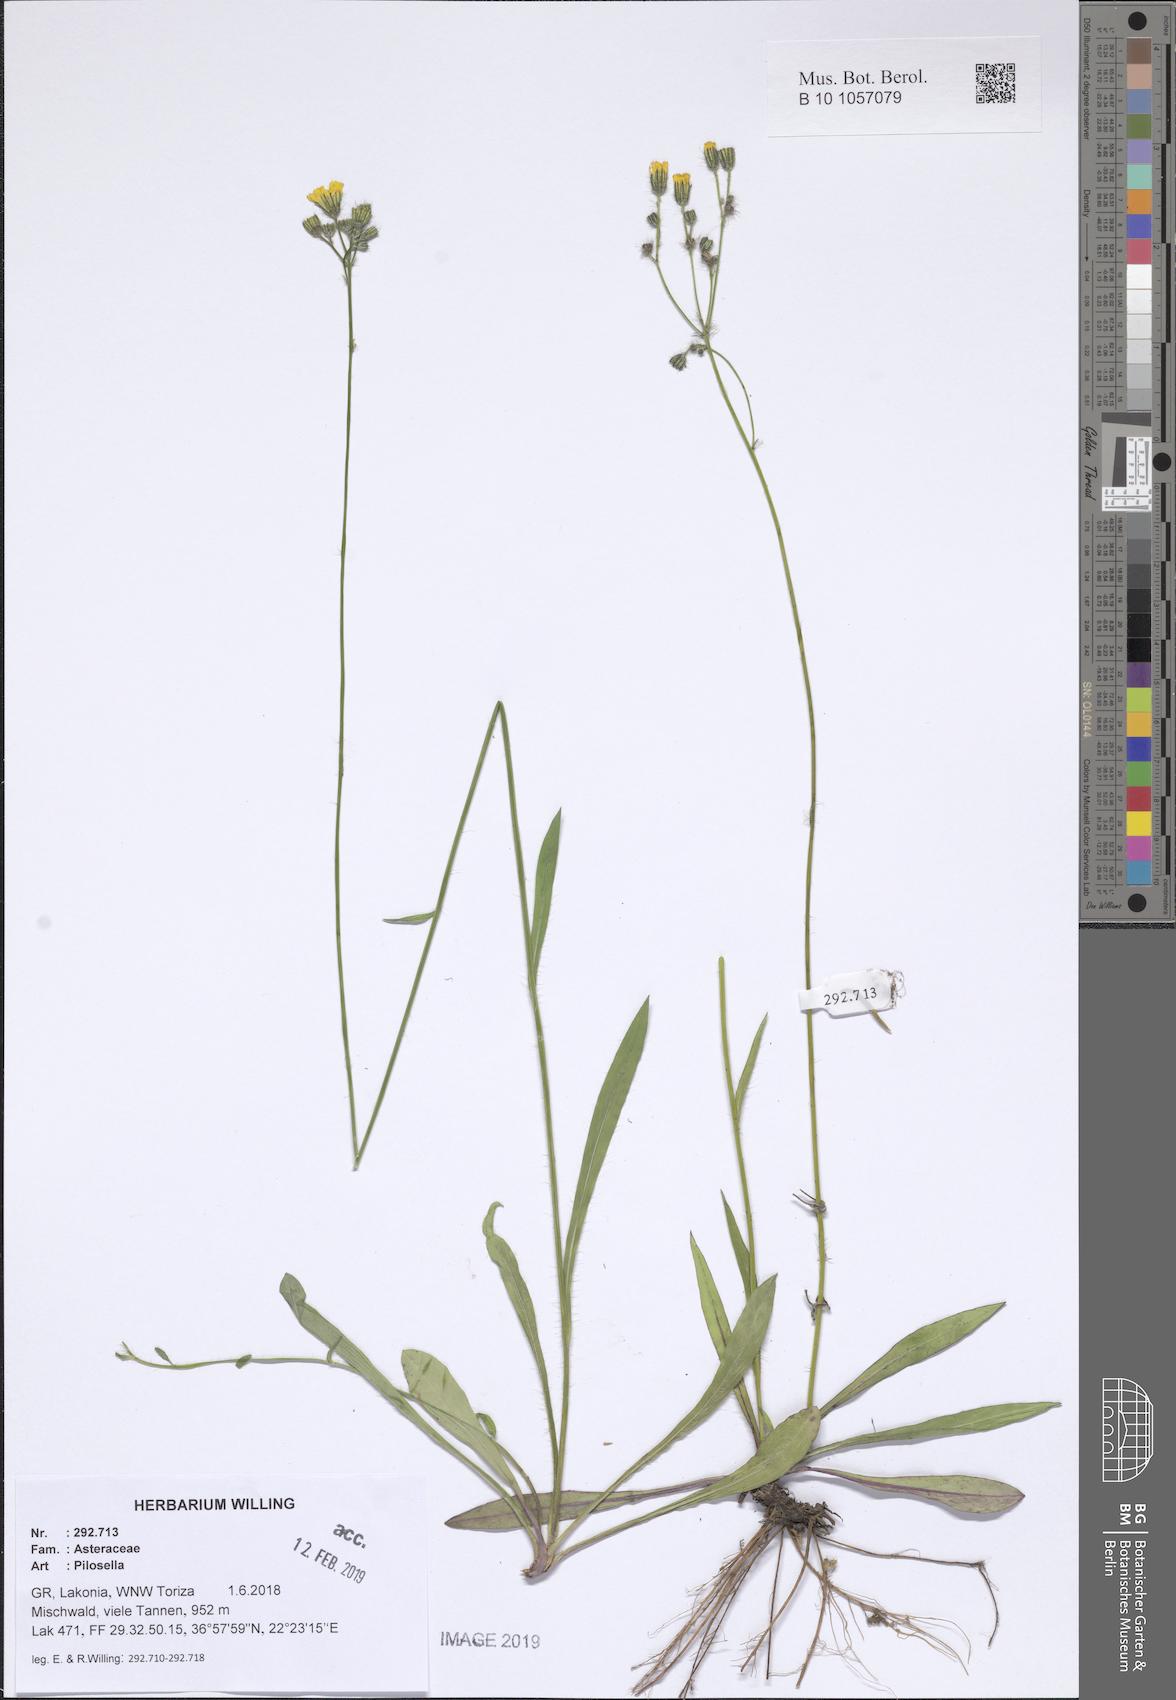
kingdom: Plantae
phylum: Tracheophyta
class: Magnoliopsida
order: Asterales
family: Asteraceae
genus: Pilosella
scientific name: Pilosella
